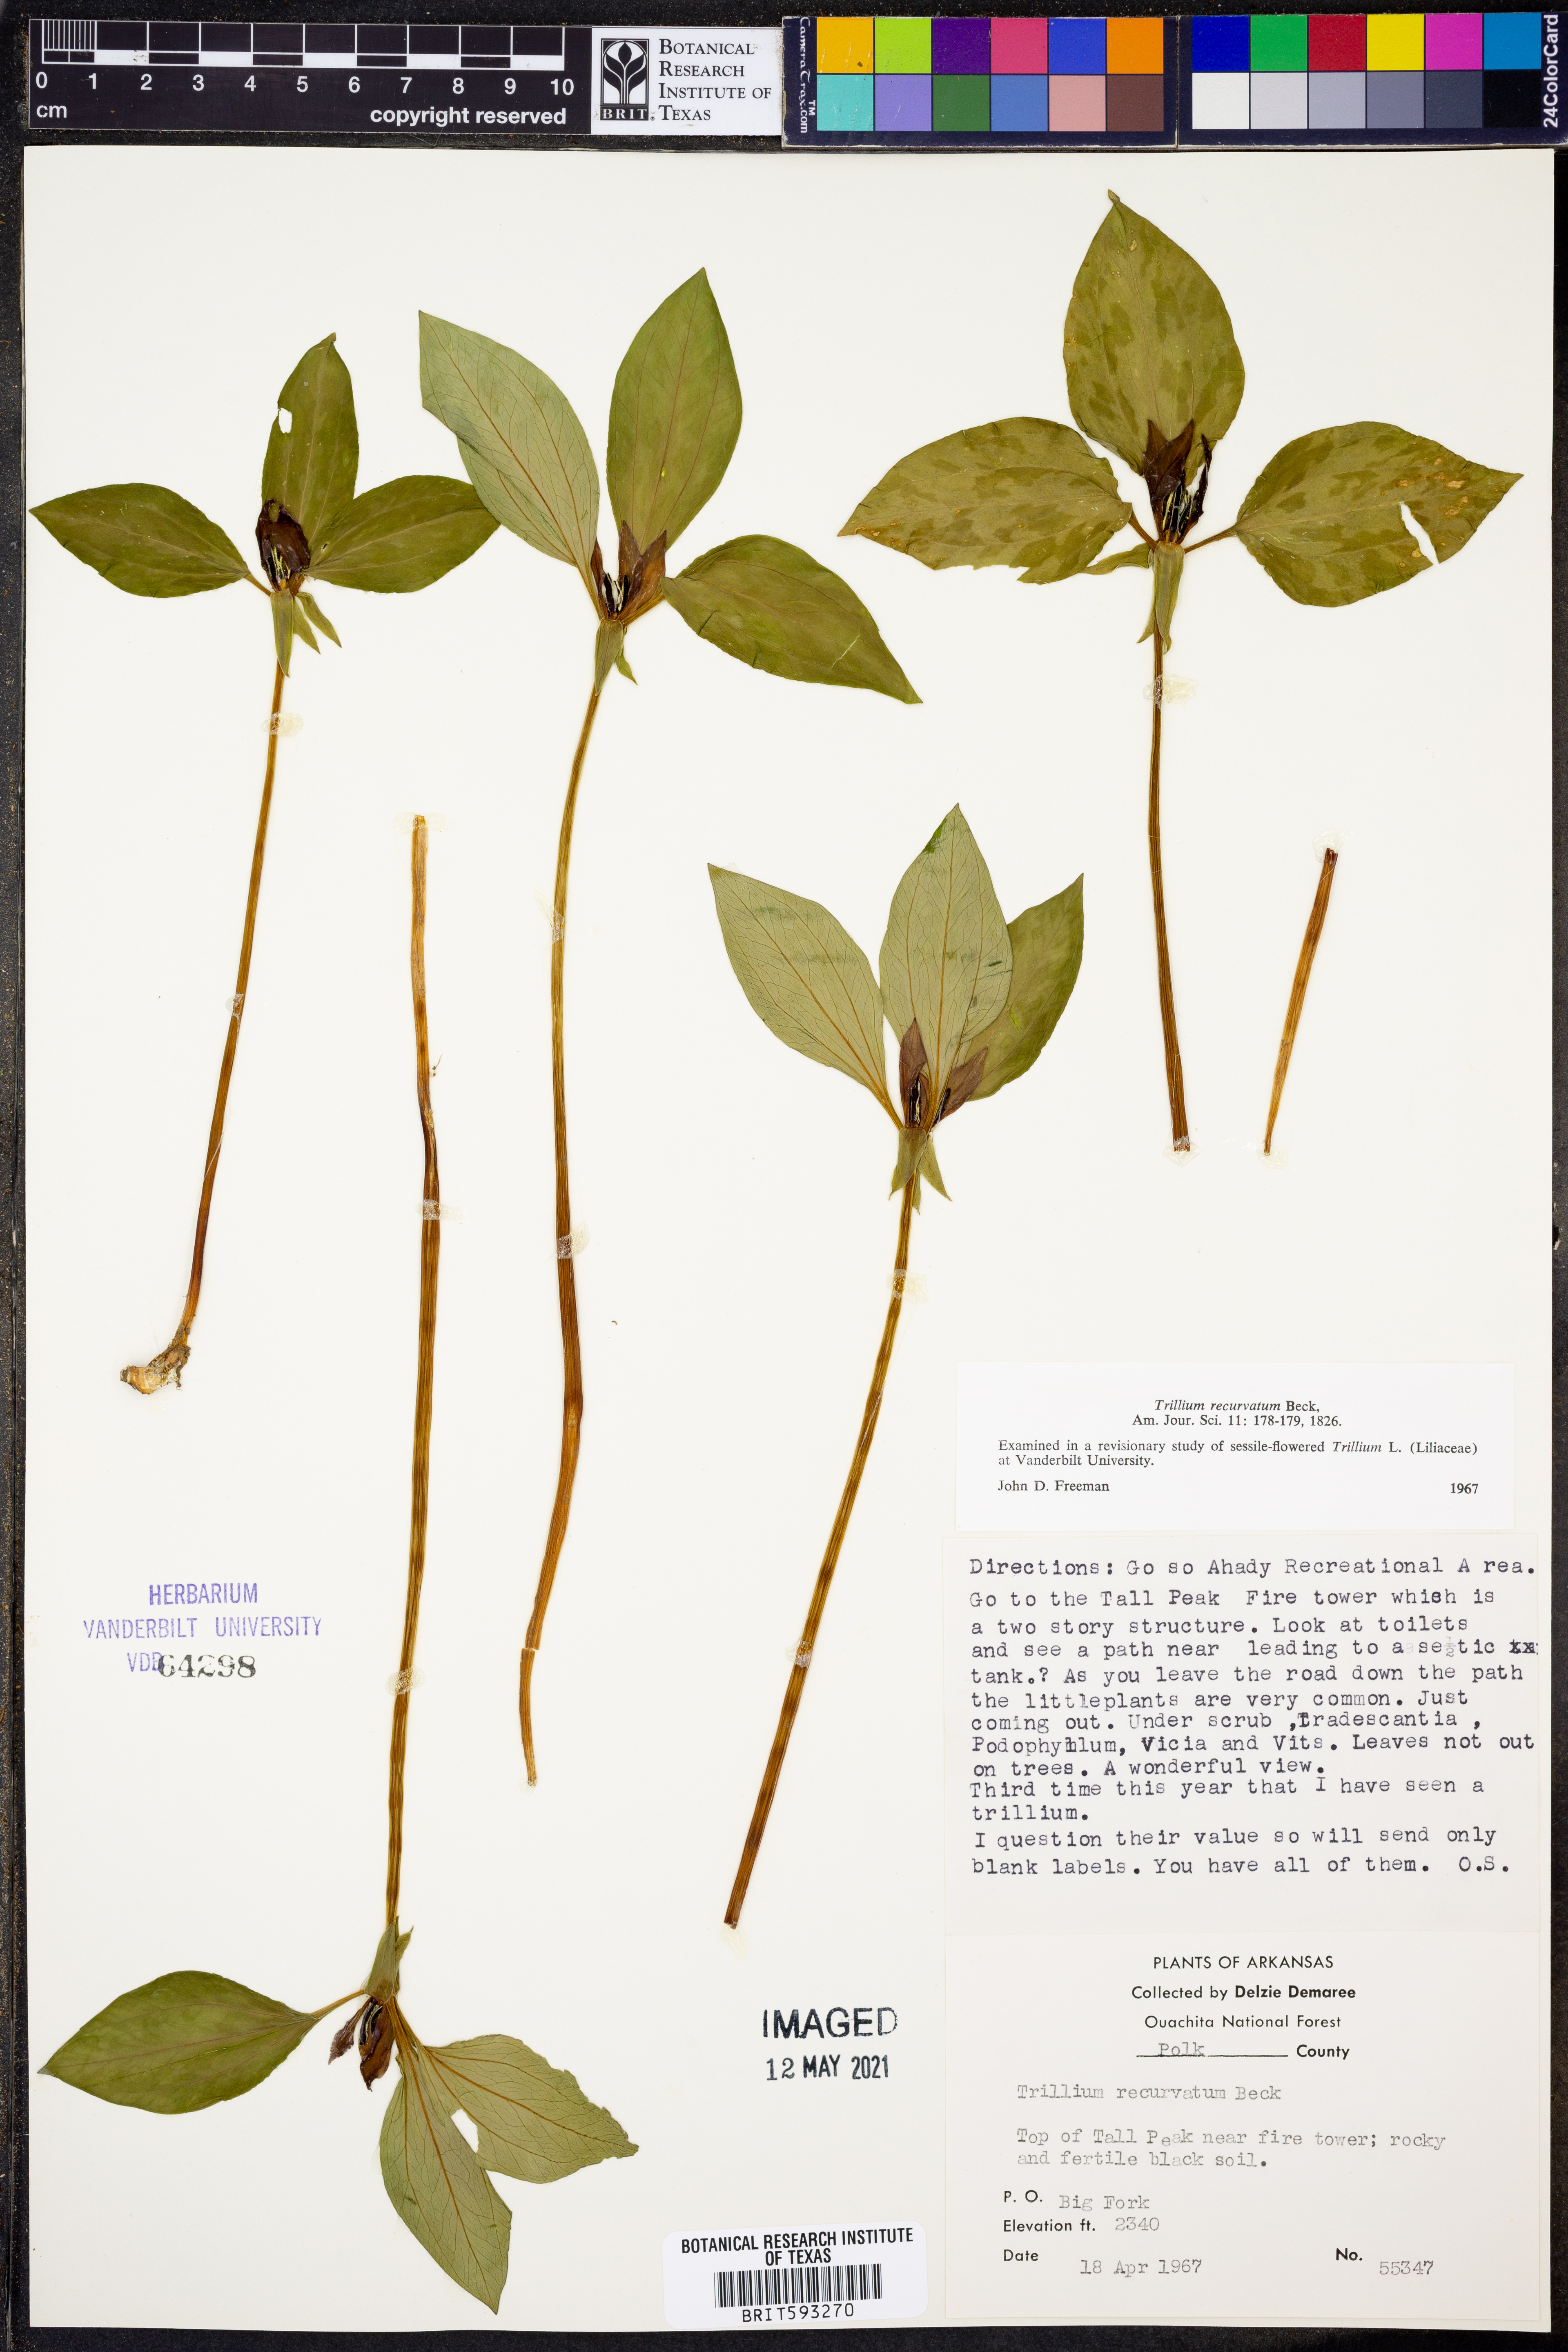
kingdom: Plantae
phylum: Tracheophyta
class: Liliopsida
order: Liliales
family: Melanthiaceae
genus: Trillium
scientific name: Trillium recurvatum
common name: Bloody butcher
